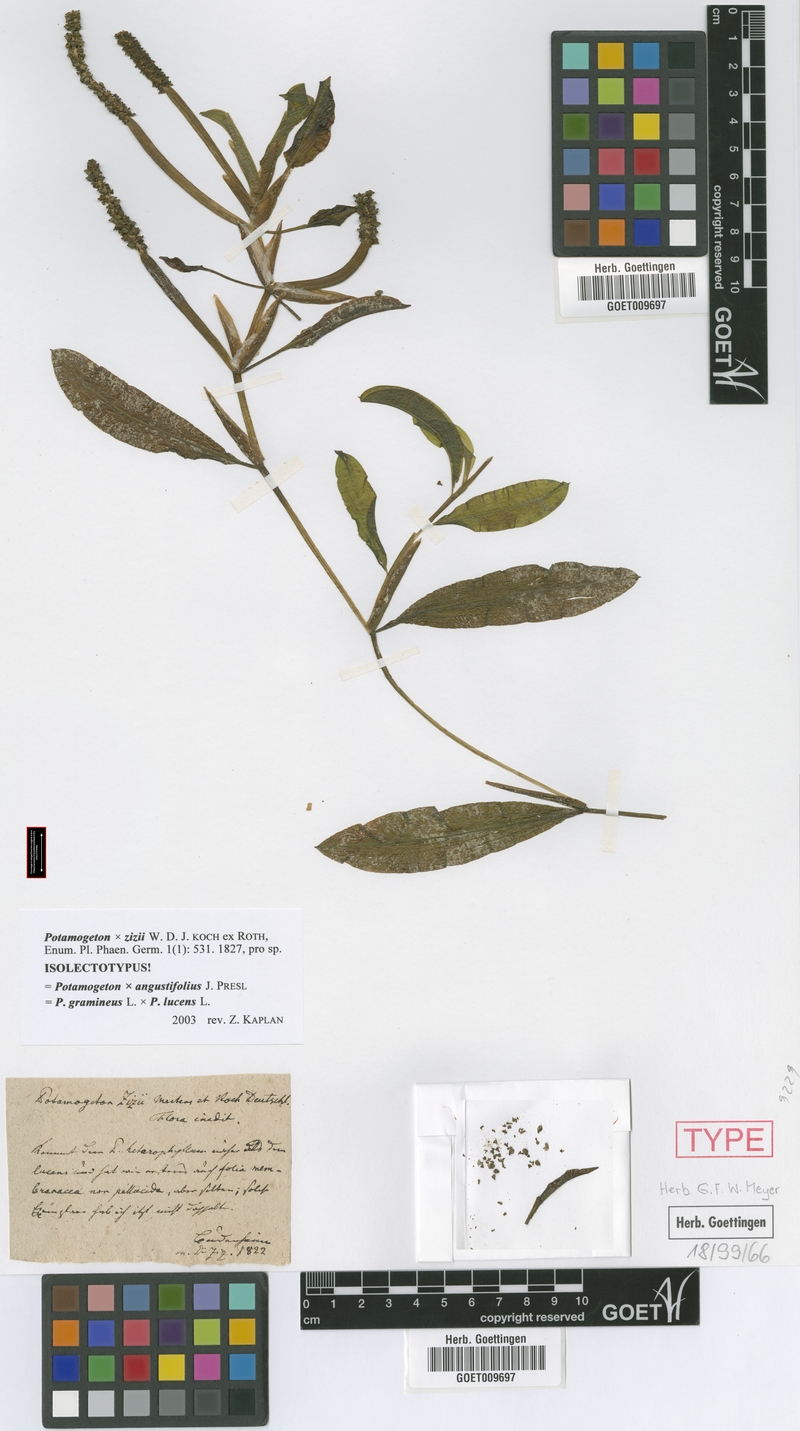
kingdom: Plantae
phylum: Tracheophyta
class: Liliopsida
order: Alismatales
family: Potamogetonaceae
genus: Potamogeton
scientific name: Potamogeton angustifolius
